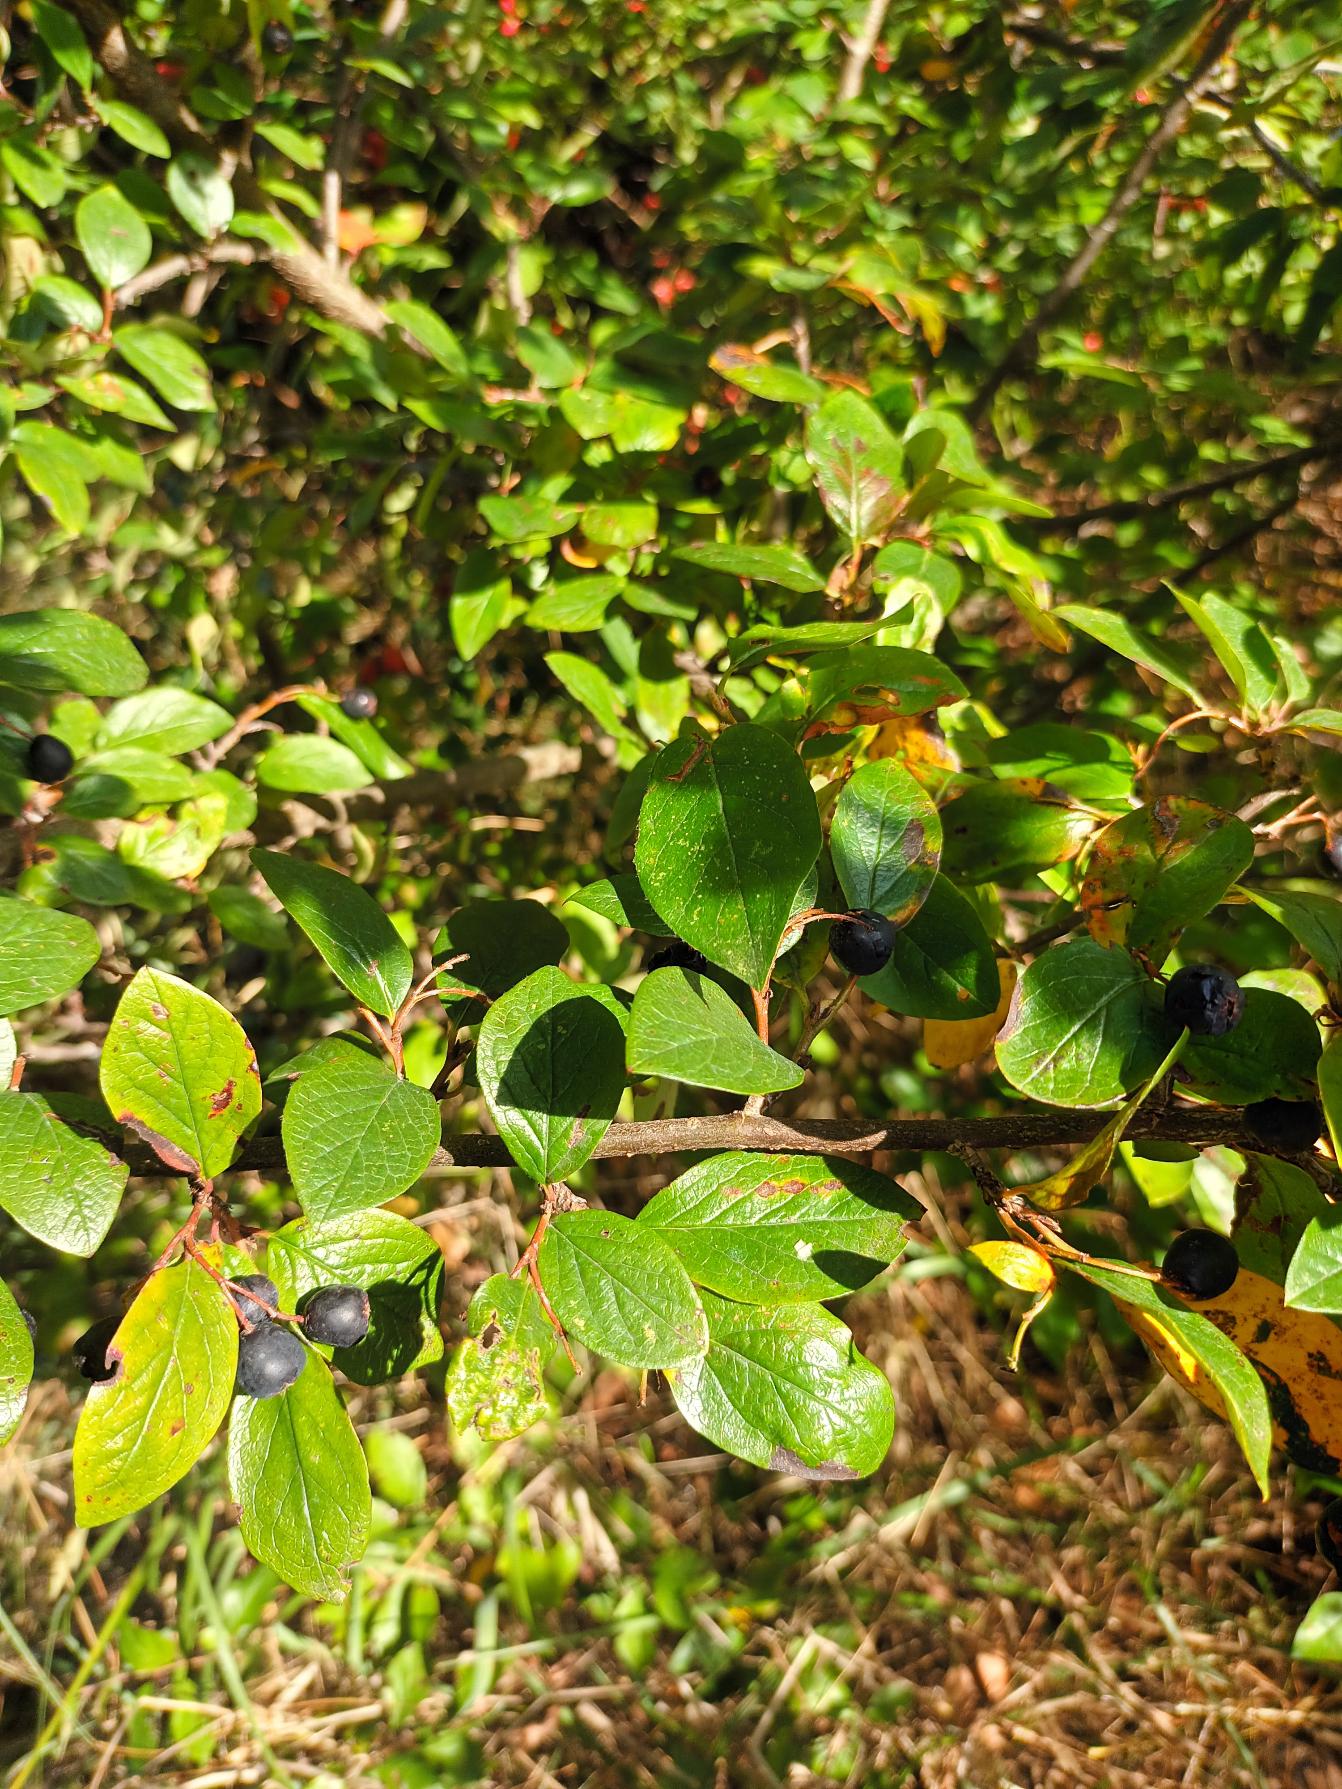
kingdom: Plantae
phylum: Tracheophyta
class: Magnoliopsida
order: Rosales
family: Rosaceae
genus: Cotoneaster
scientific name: Cotoneaster acutifolius
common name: Glans-dværgmispel
